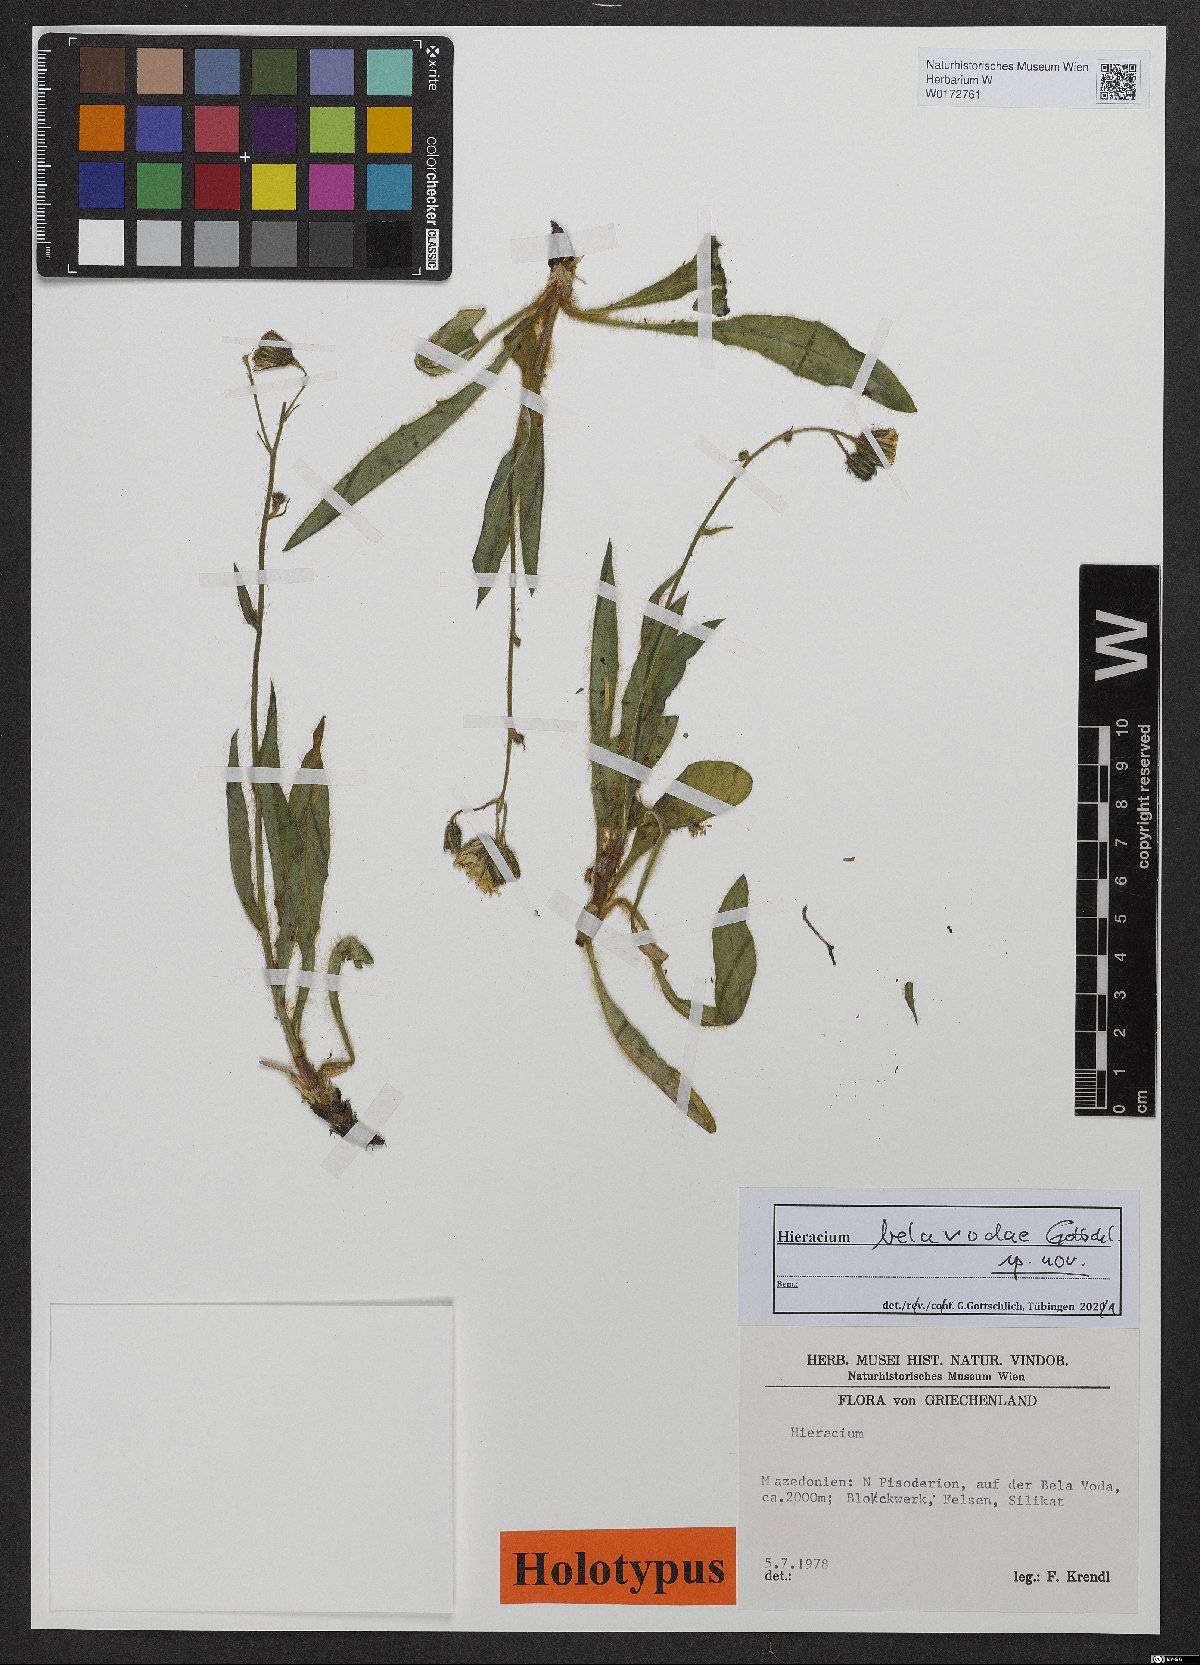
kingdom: Plantae
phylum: Tracheophyta
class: Magnoliopsida
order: Asterales
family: Asteraceae
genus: Hieracium
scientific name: Hieracium
